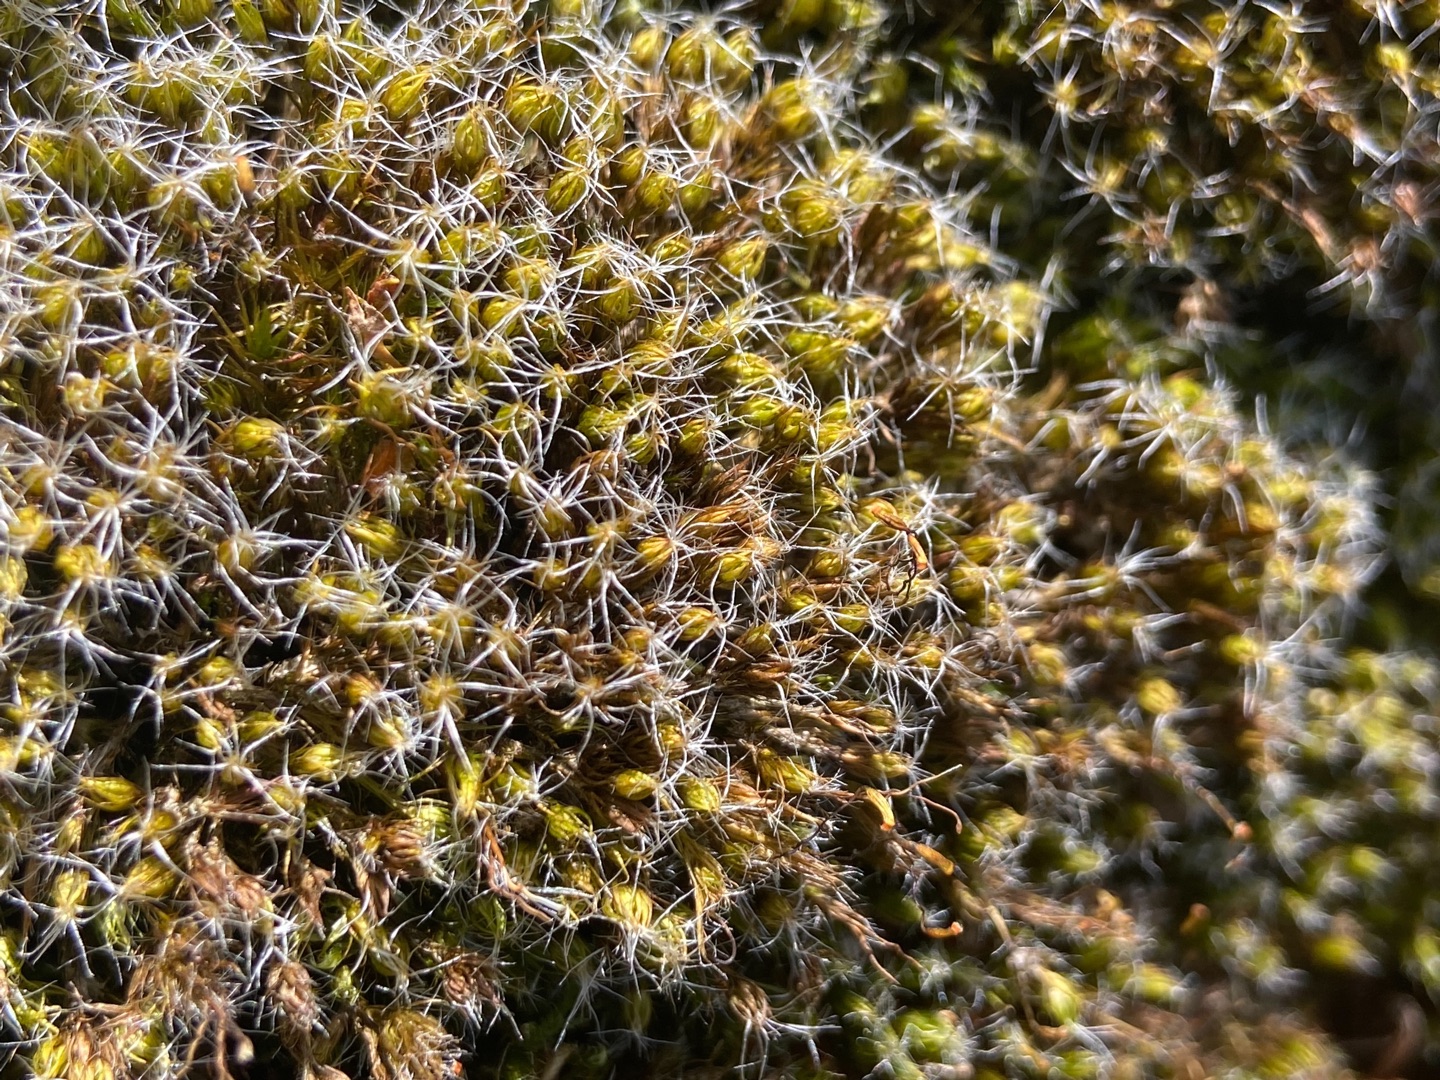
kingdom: Plantae
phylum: Bryophyta
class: Bryopsida
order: Dicranales
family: Leucobryaceae
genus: Campylopus
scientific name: Campylopus introflexus
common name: Stjerne-bredribbe
